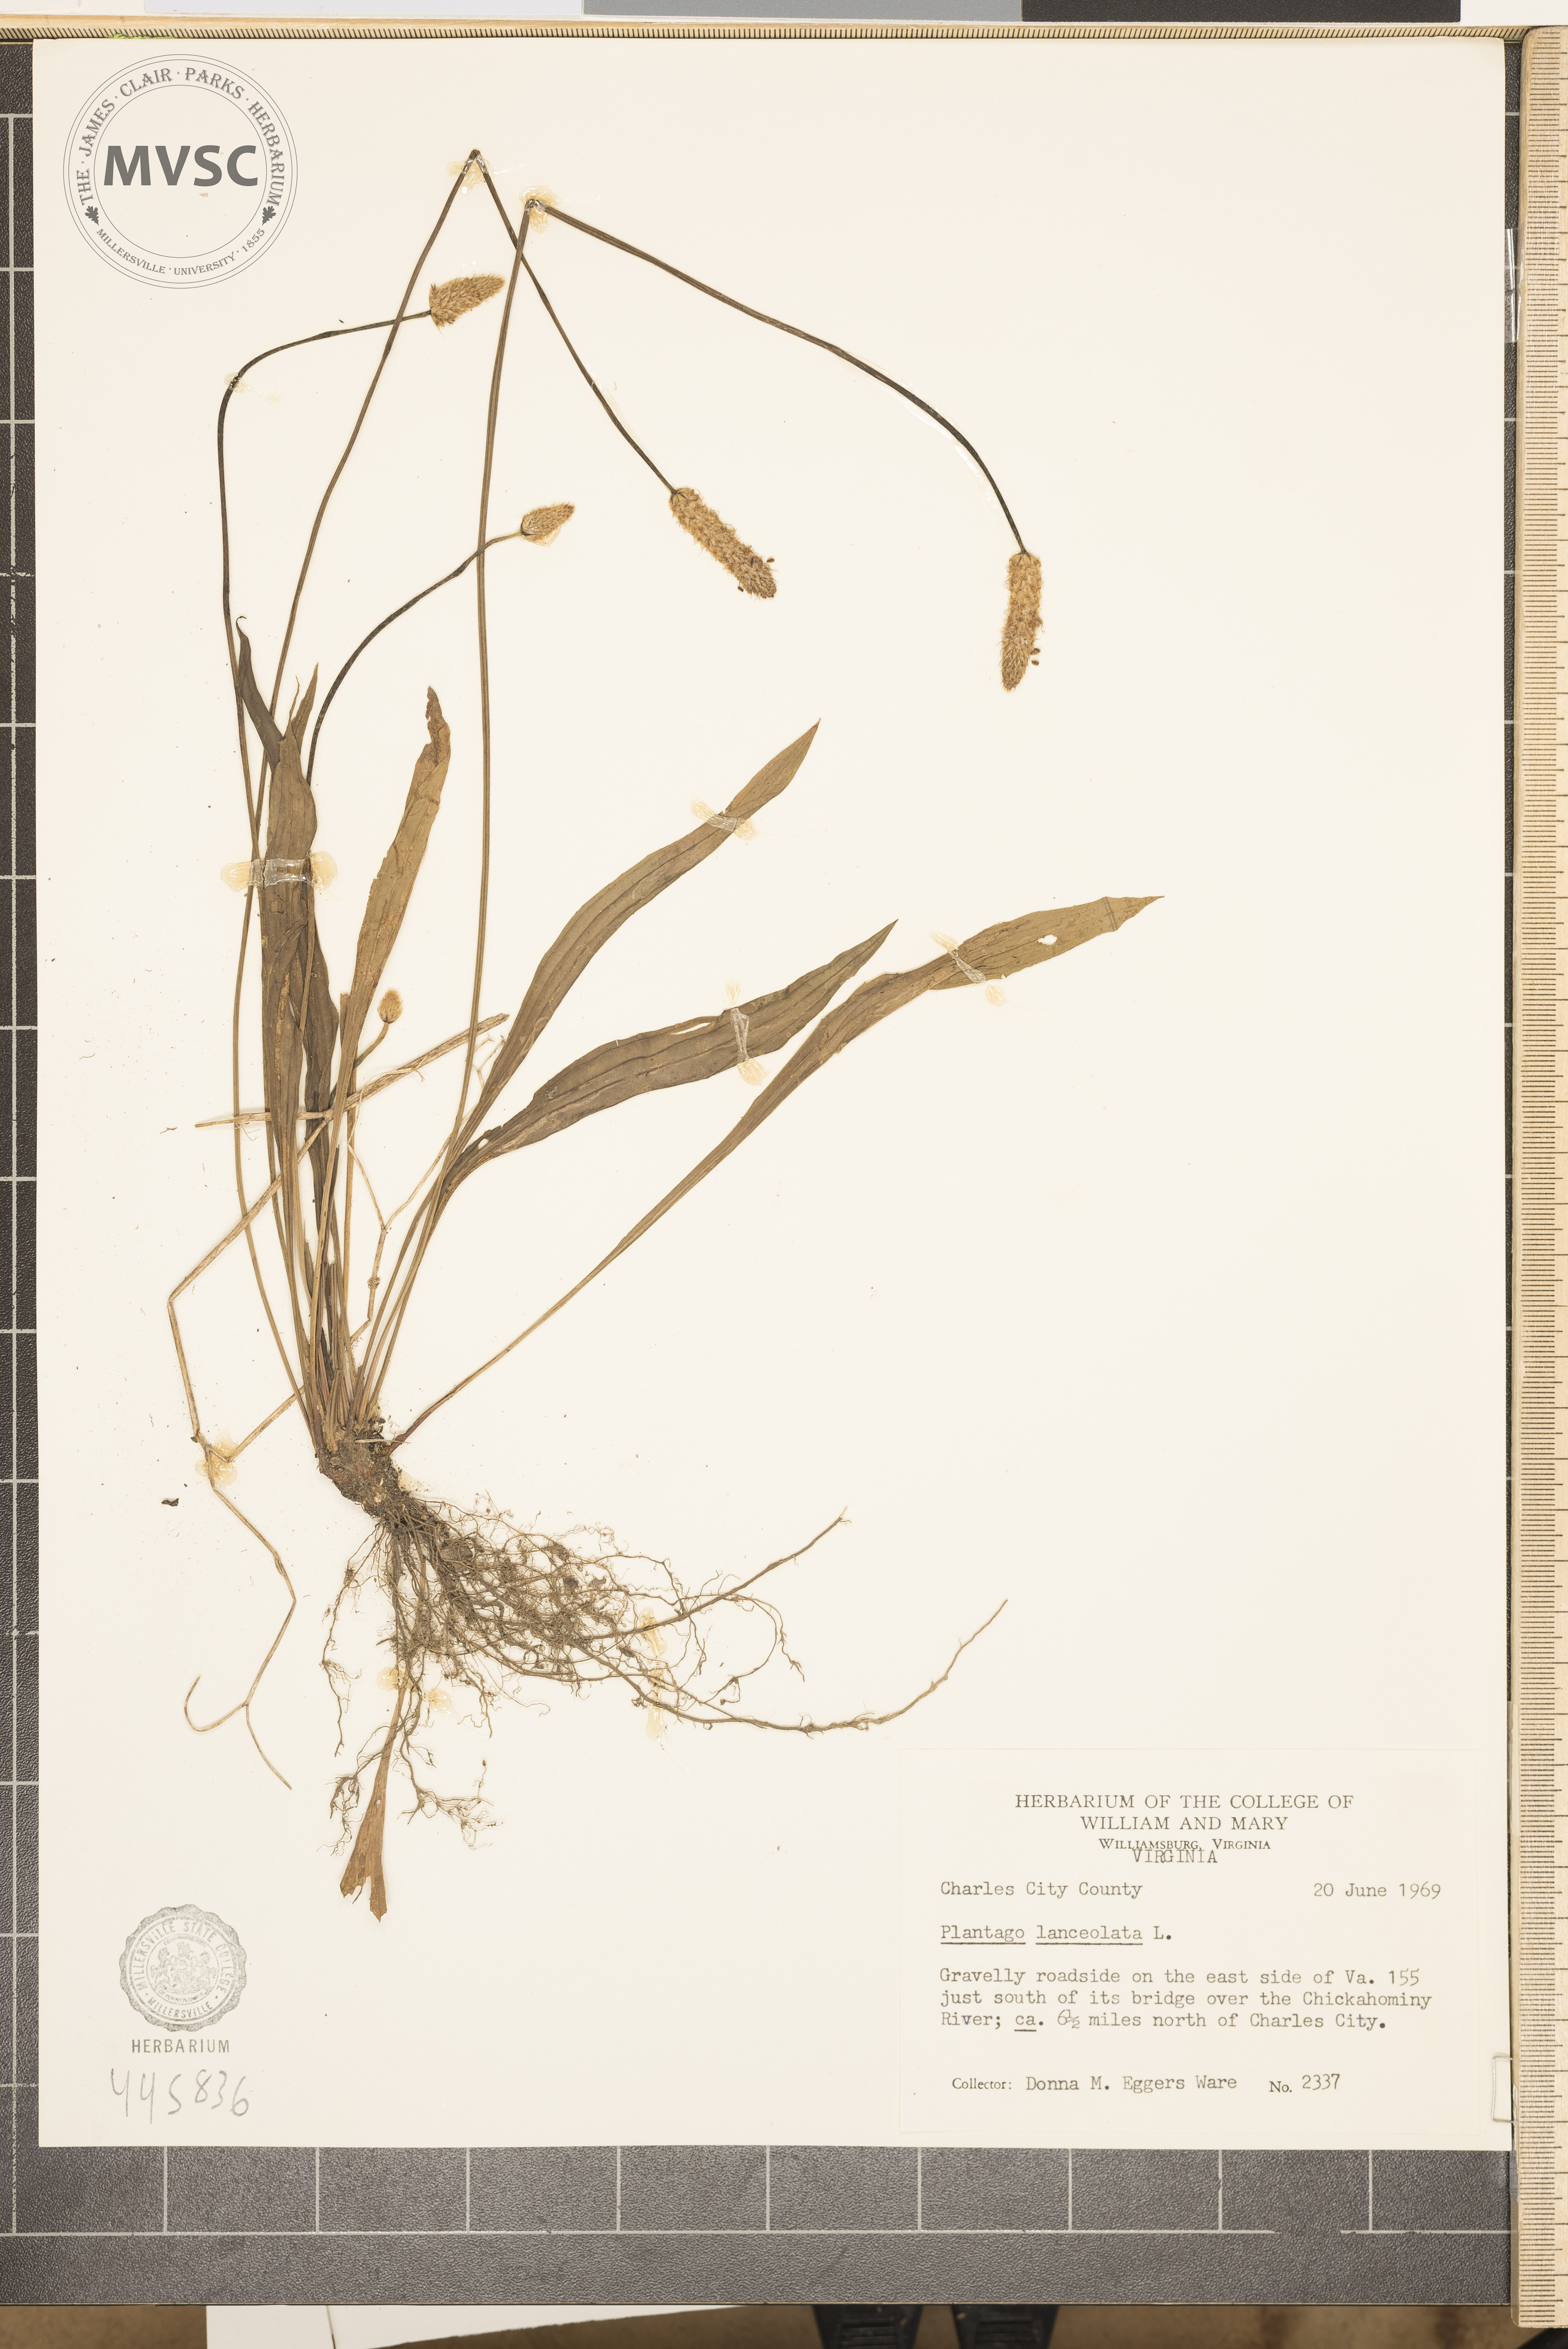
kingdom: Plantae
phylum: Tracheophyta
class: Magnoliopsida
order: Lamiales
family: Plantaginaceae
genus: Plantago
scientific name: Plantago lanceolata
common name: Ribwort plantain
